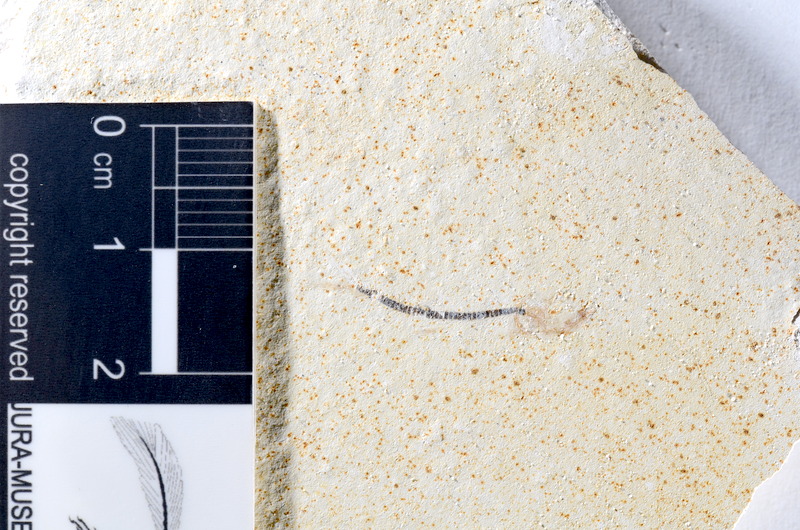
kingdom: Animalia
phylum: Chordata
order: Salmoniformes
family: Orthogonikleithridae
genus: Orthogonikleithrus
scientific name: Orthogonikleithrus hoelli
